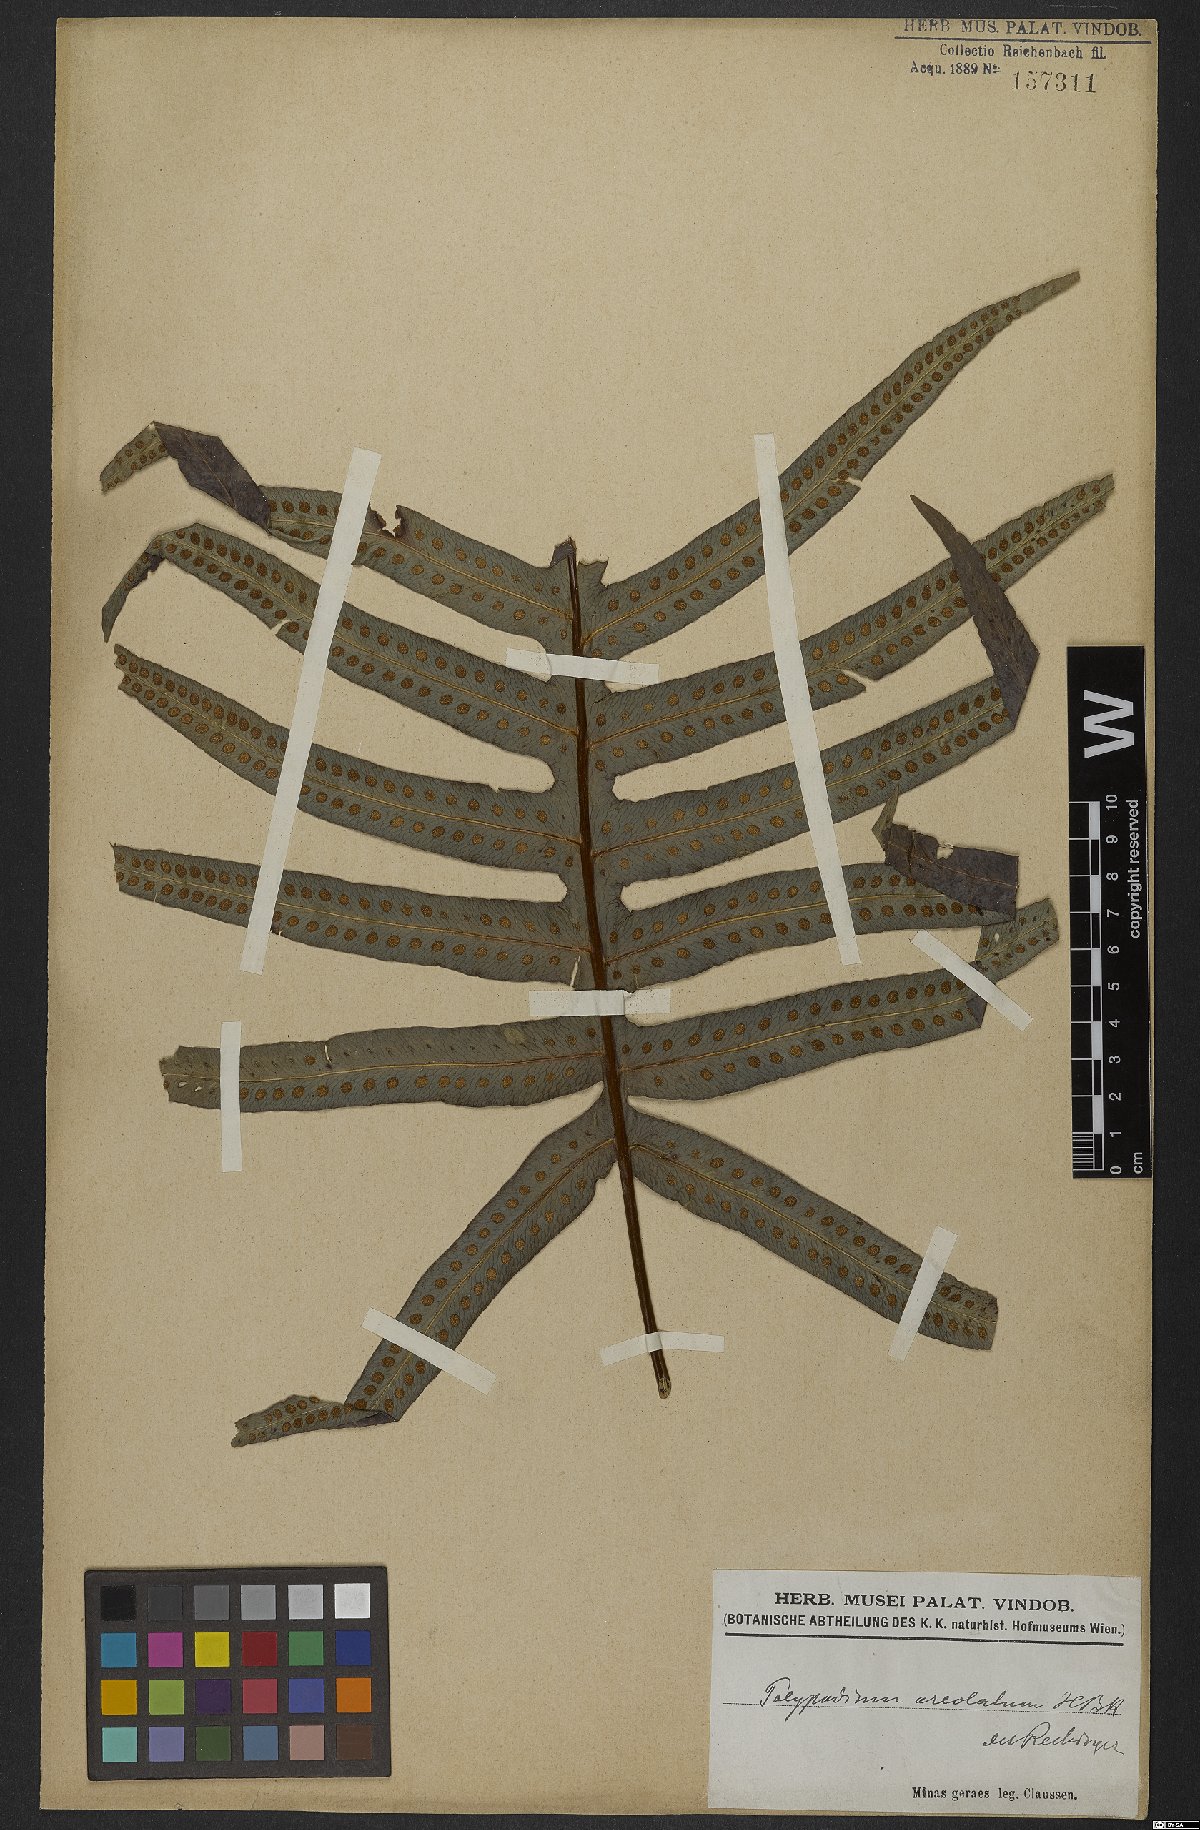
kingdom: Plantae
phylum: Tracheophyta
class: Polypodiopsida
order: Polypodiales
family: Polypodiaceae
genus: Phlebodium
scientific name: Phlebodium aureum
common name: Gold-foot fern
